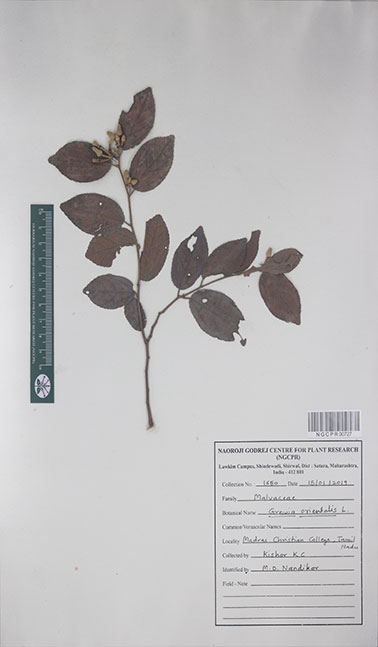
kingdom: Plantae
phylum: Tracheophyta
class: Magnoliopsida
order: Malvales
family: Malvaceae
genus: Grewia
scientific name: Grewia orientalis
